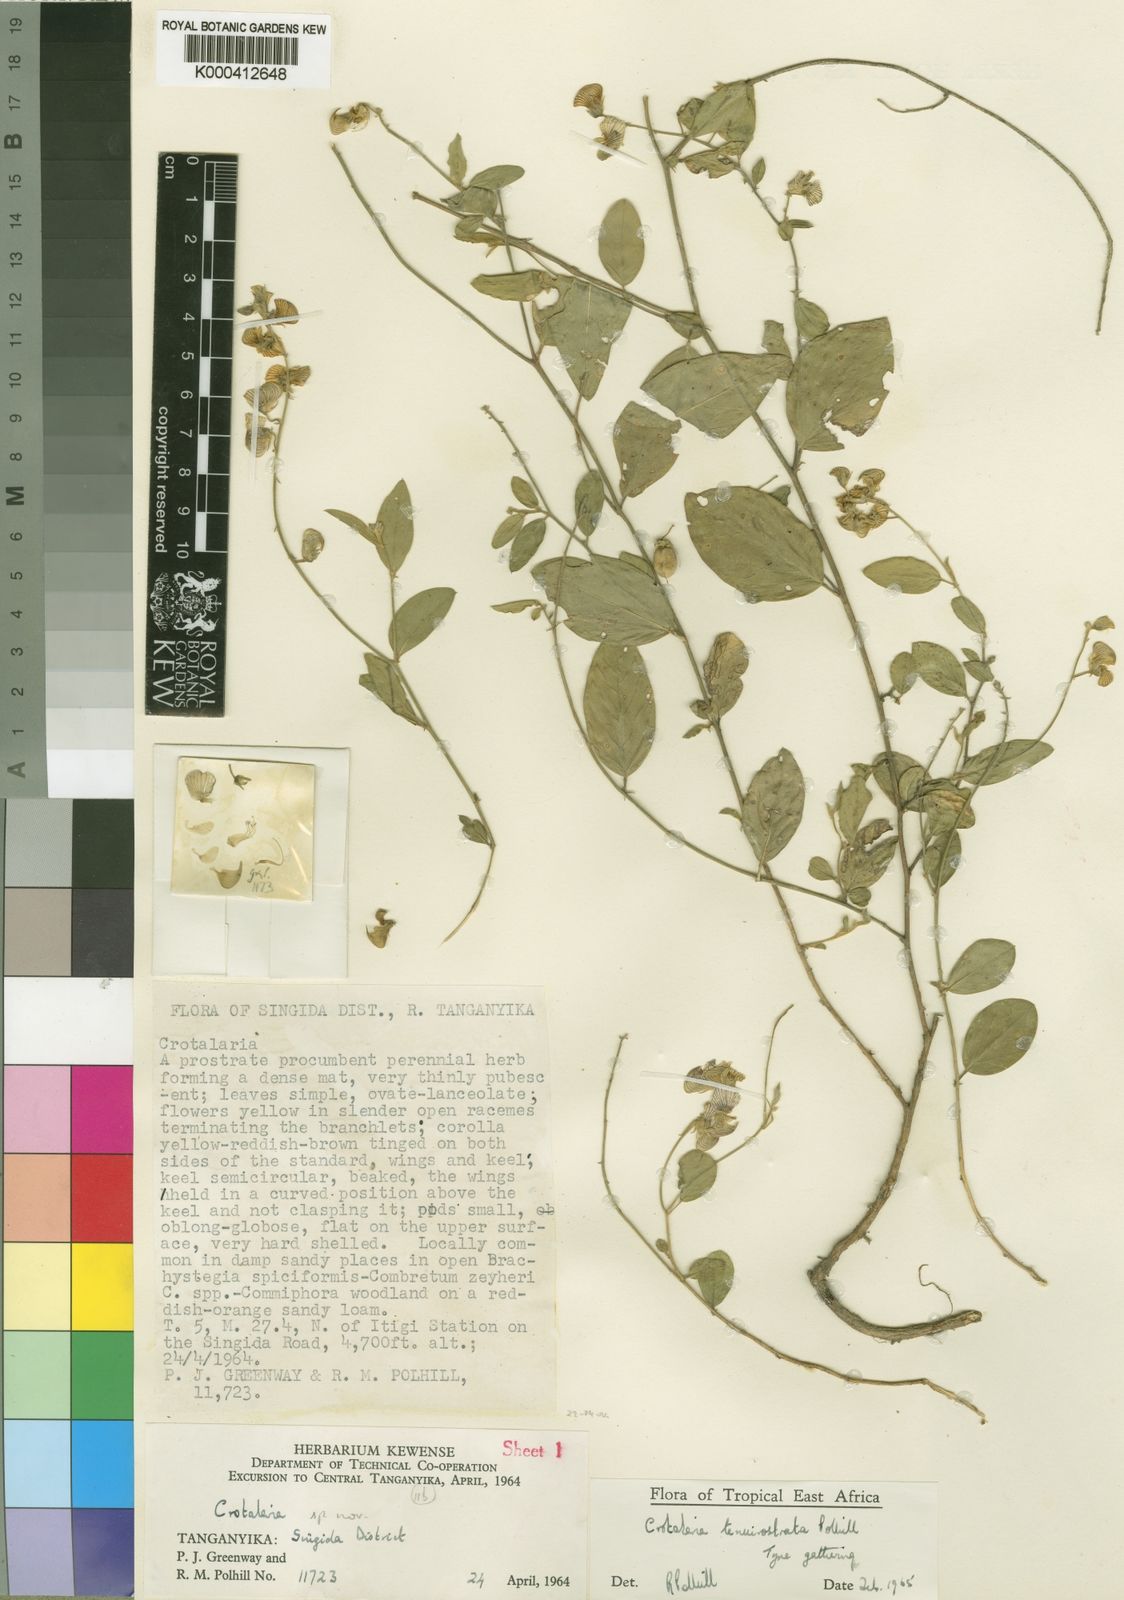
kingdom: Plantae
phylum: Tracheophyta
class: Magnoliopsida
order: Fabales
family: Fabaceae
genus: Crotalaria
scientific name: Crotalaria tenuirostrata
